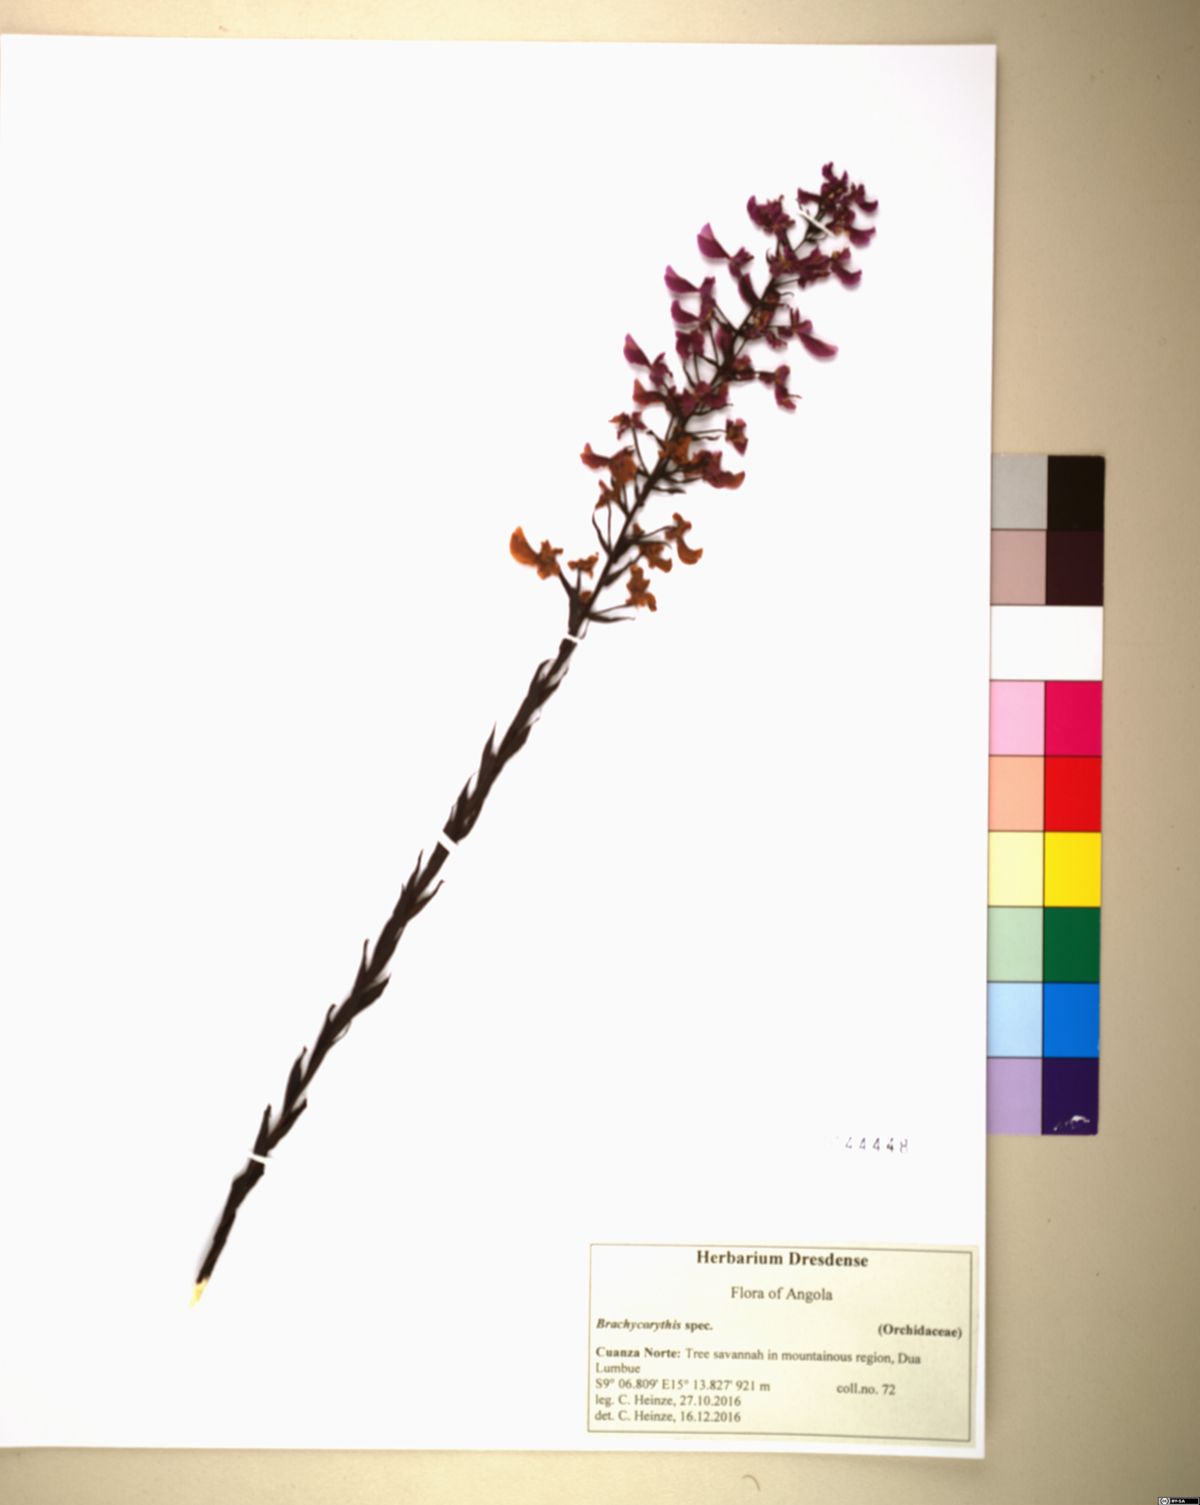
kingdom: Plantae
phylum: Tracheophyta
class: Liliopsida
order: Asparagales
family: Orchidaceae
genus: Brachycorythis
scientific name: Brachycorythis pleistophylla
